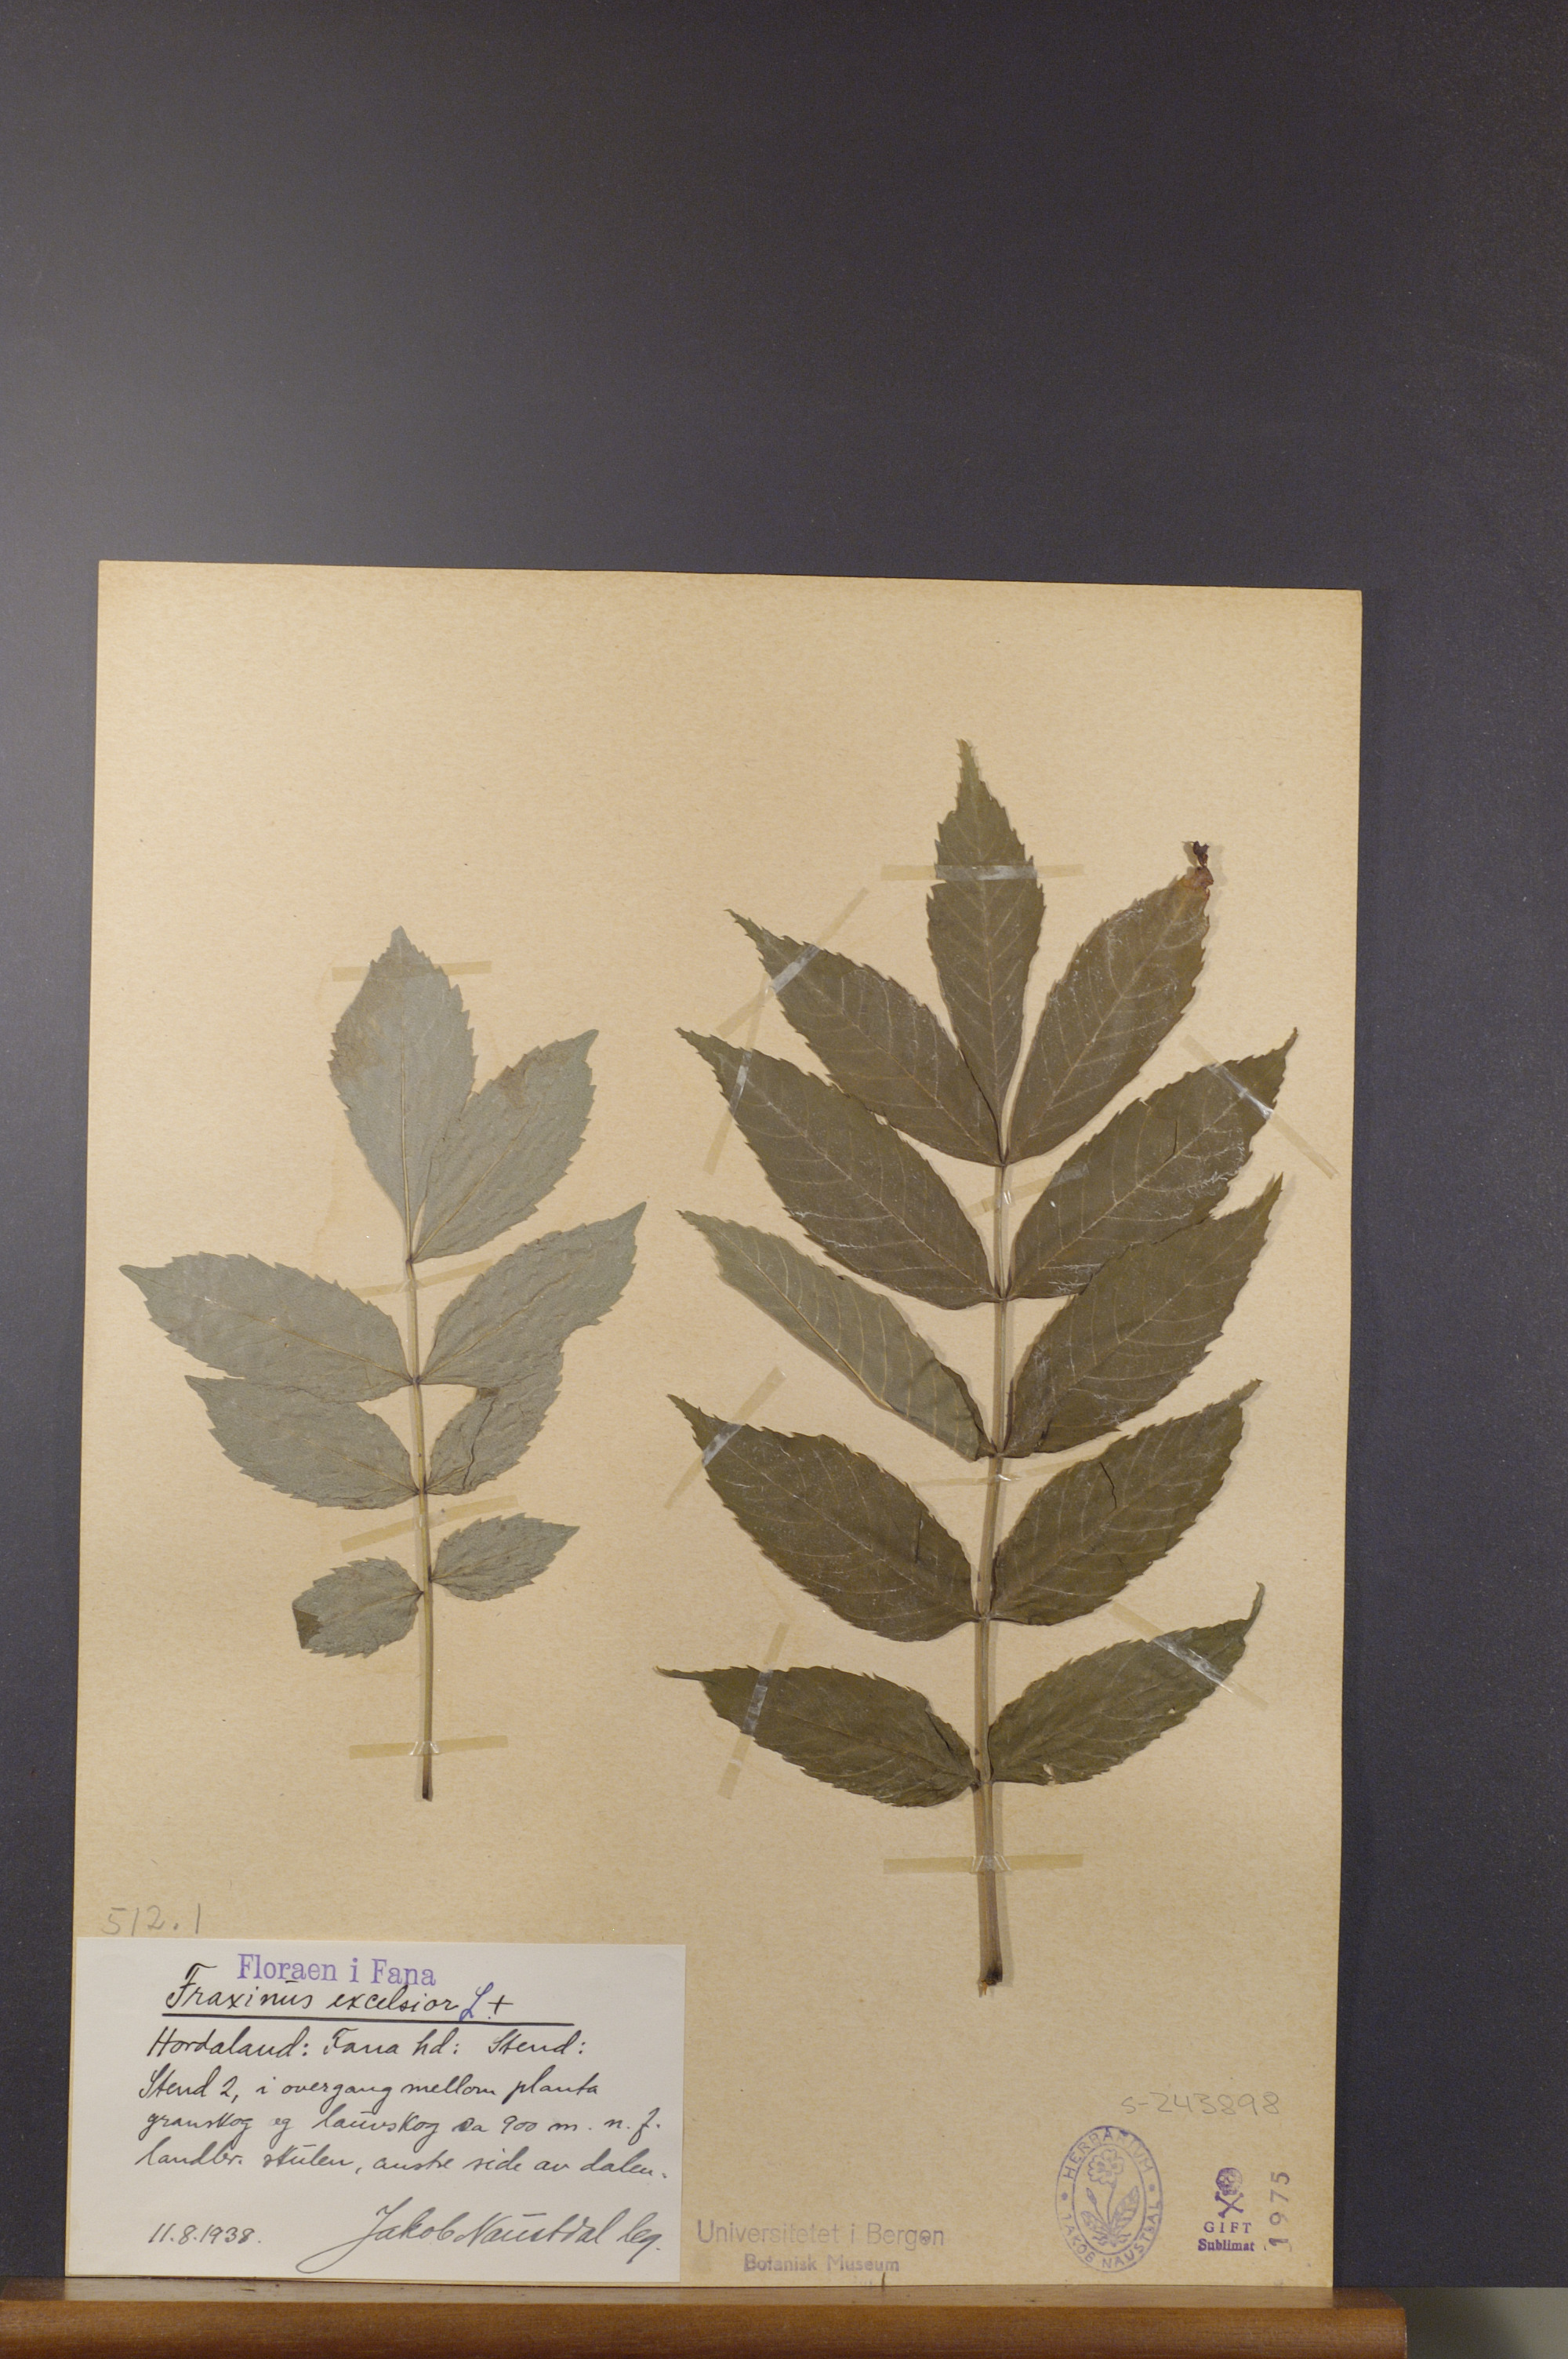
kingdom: Plantae
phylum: Tracheophyta
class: Magnoliopsida
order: Lamiales
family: Oleaceae
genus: Fraxinus
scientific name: Fraxinus excelsior
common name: European ash
